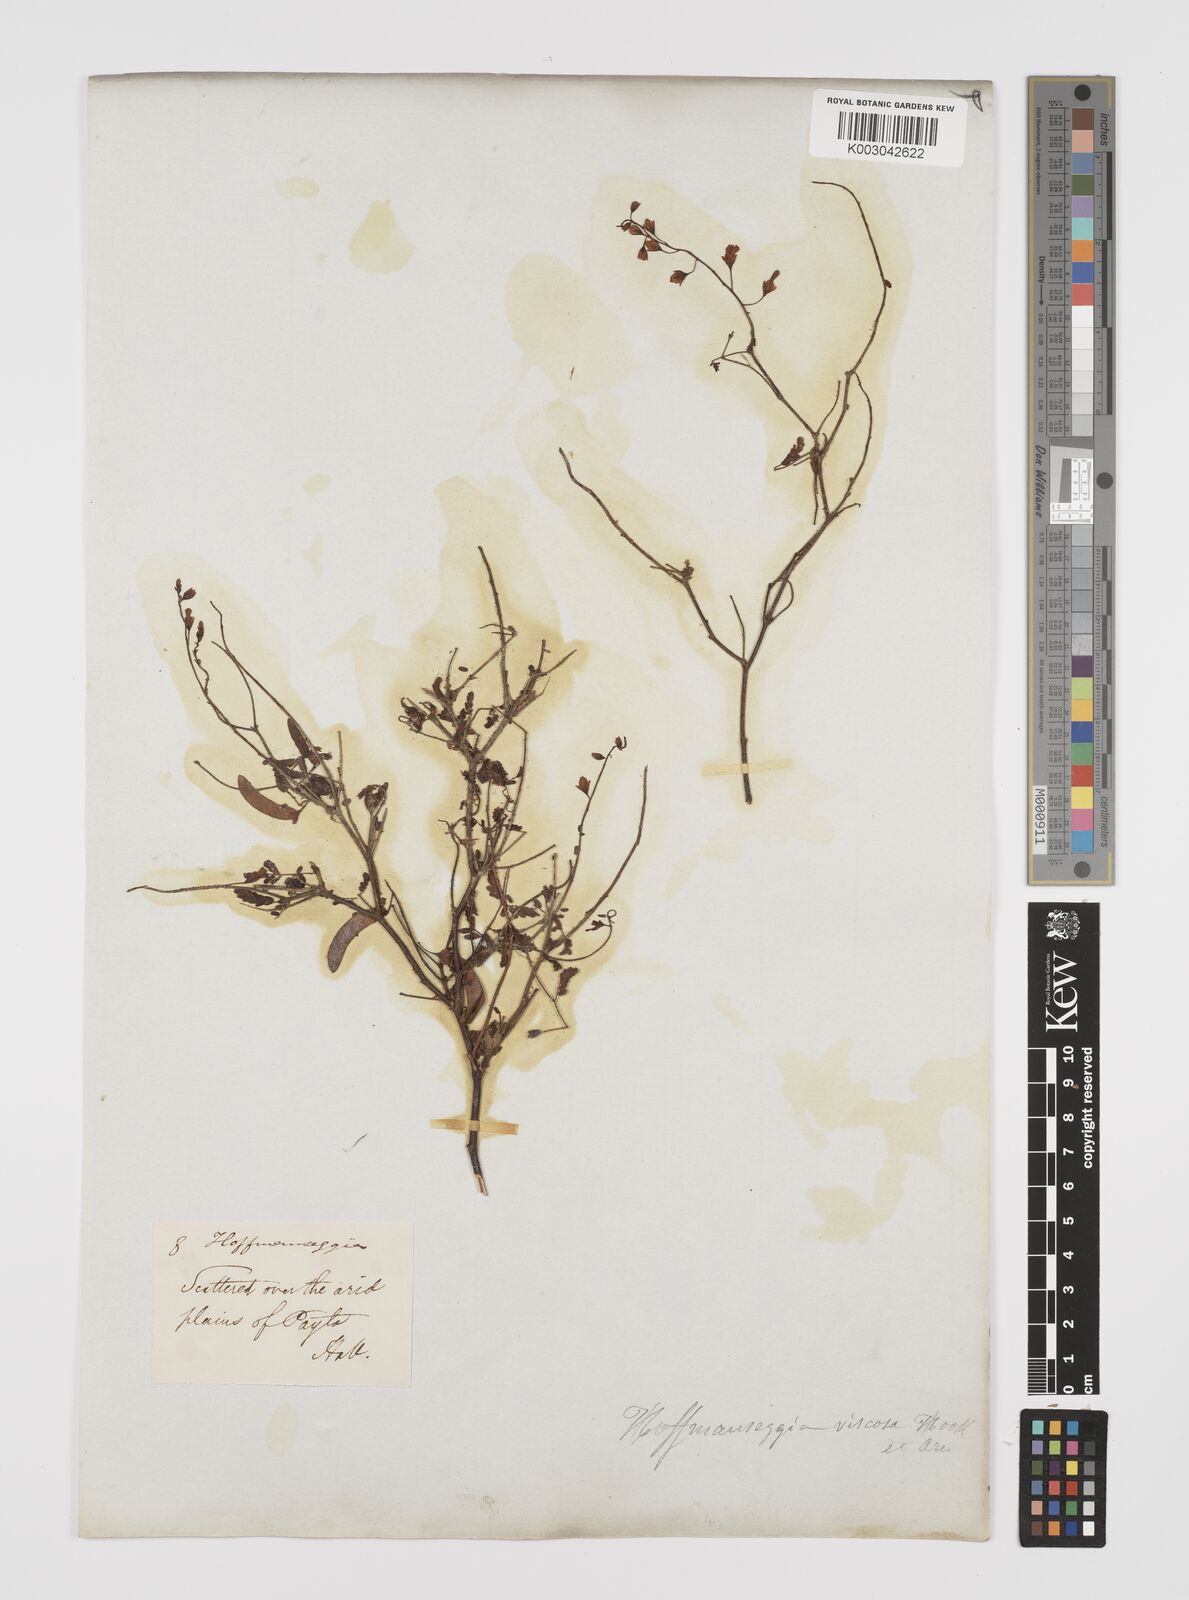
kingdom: Plantae
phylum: Tracheophyta
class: Magnoliopsida
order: Fabales
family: Fabaceae
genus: Hoffmannseggia
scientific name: Hoffmannseggia viscosa
